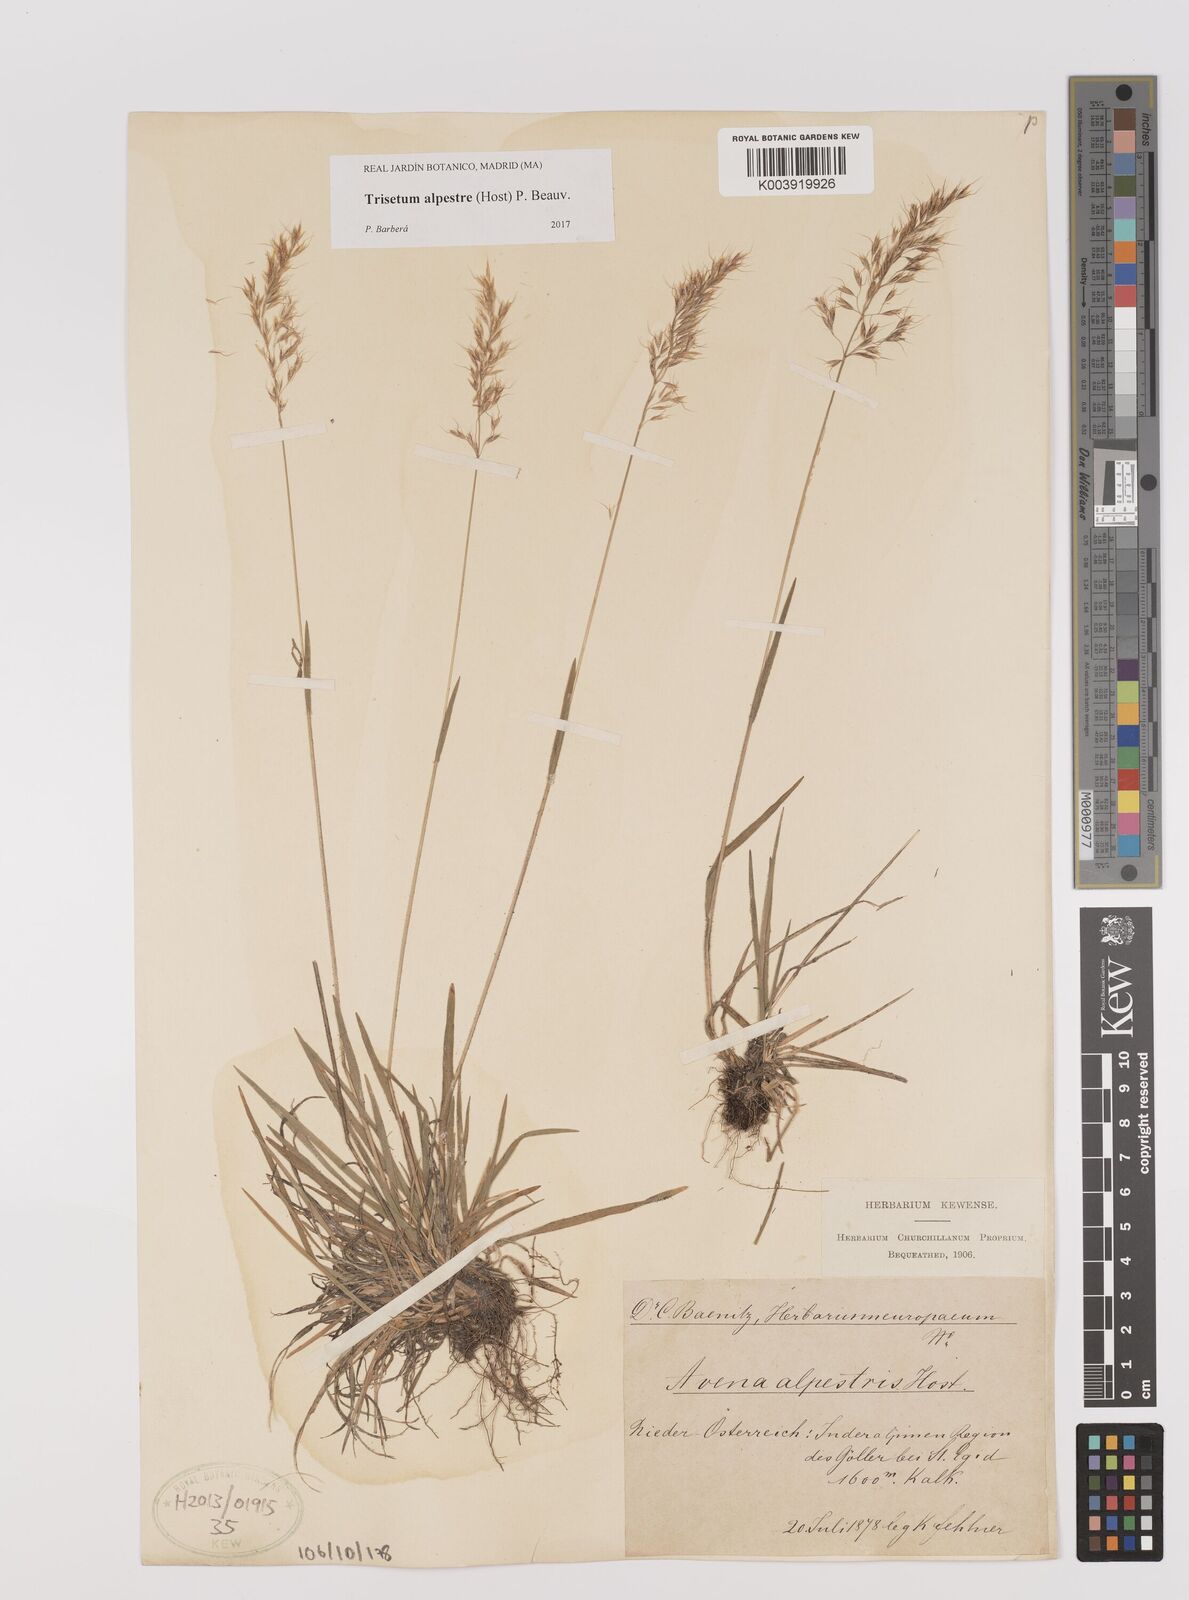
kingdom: Plantae
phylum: Tracheophyta
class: Liliopsida
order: Poales
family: Poaceae
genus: Trisetum
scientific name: Trisetum alpestre
